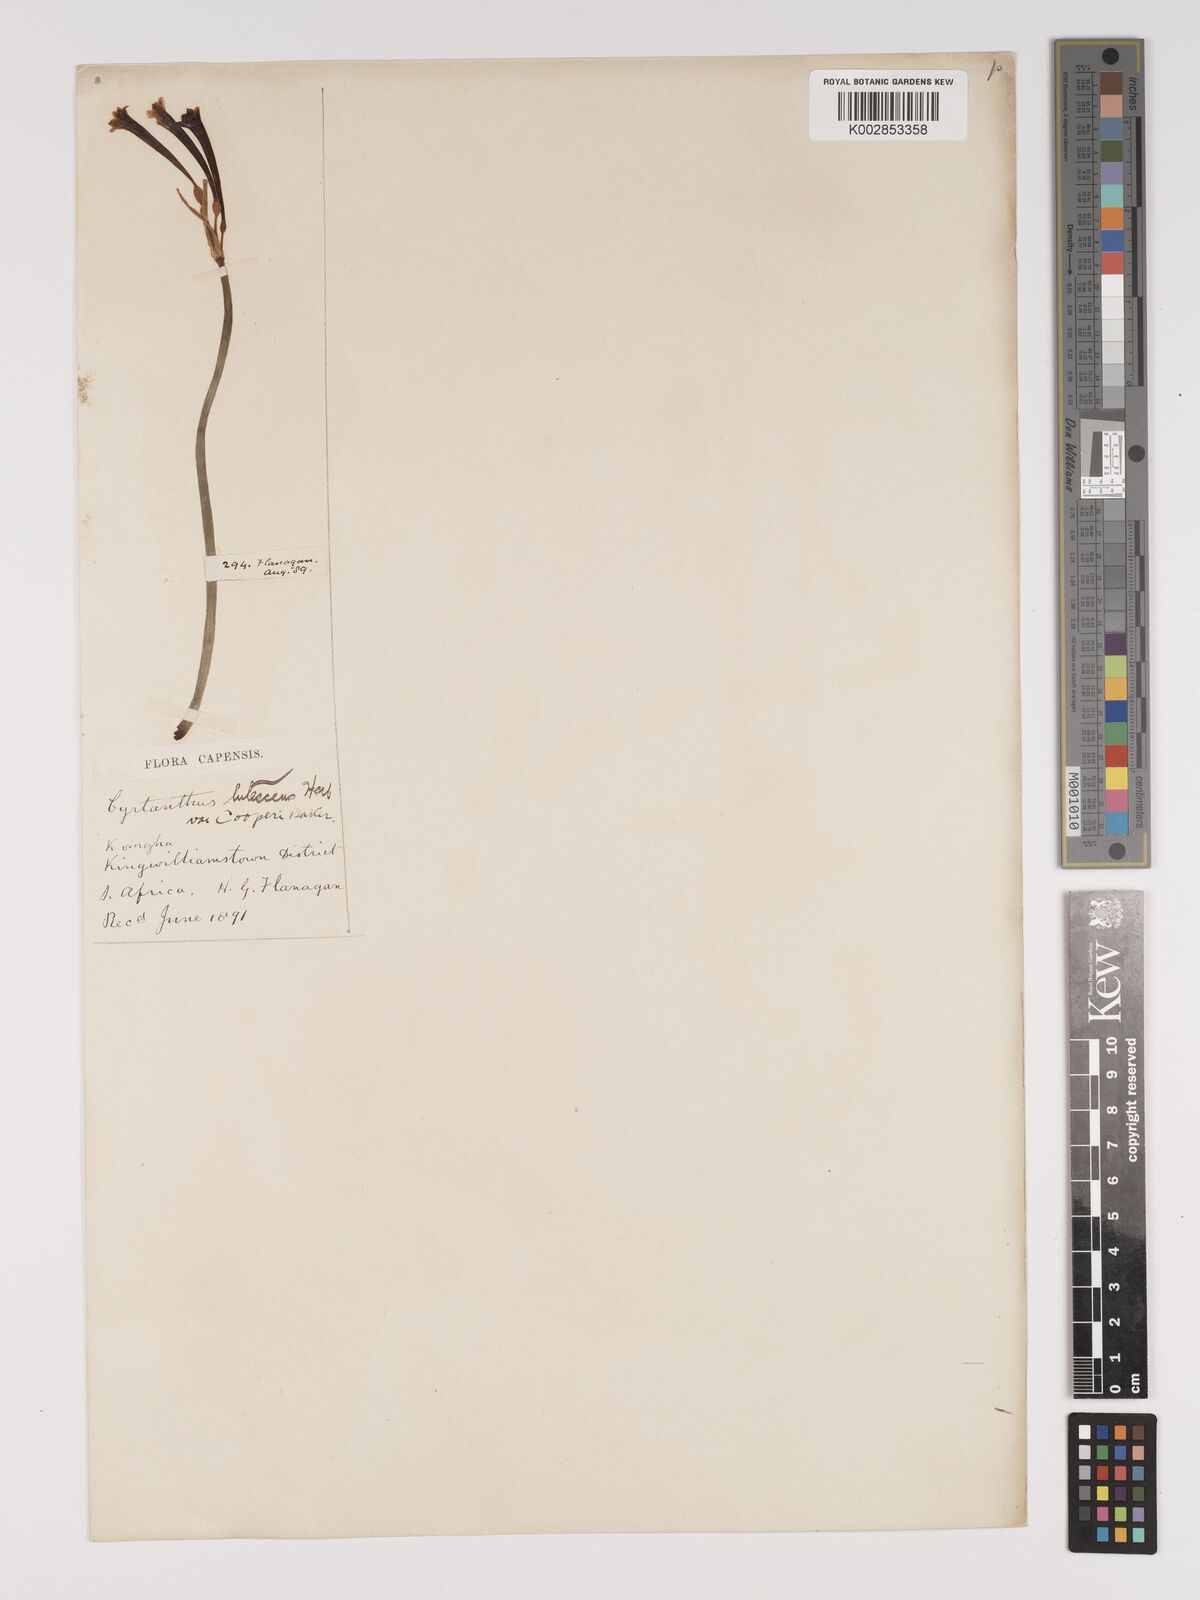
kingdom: Plantae
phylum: Tracheophyta
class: Liliopsida
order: Asparagales
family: Amaryllidaceae
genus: Cyrtanthus
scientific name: Cyrtanthus mackenii
